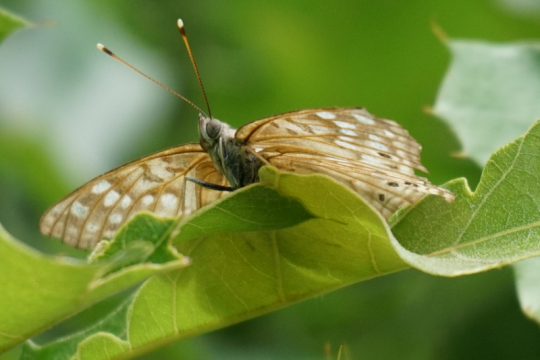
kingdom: Animalia
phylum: Arthropoda
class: Insecta
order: Lepidoptera
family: Nymphalidae
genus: Asterocampa
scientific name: Asterocampa celtis
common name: Hackberry Emperor
